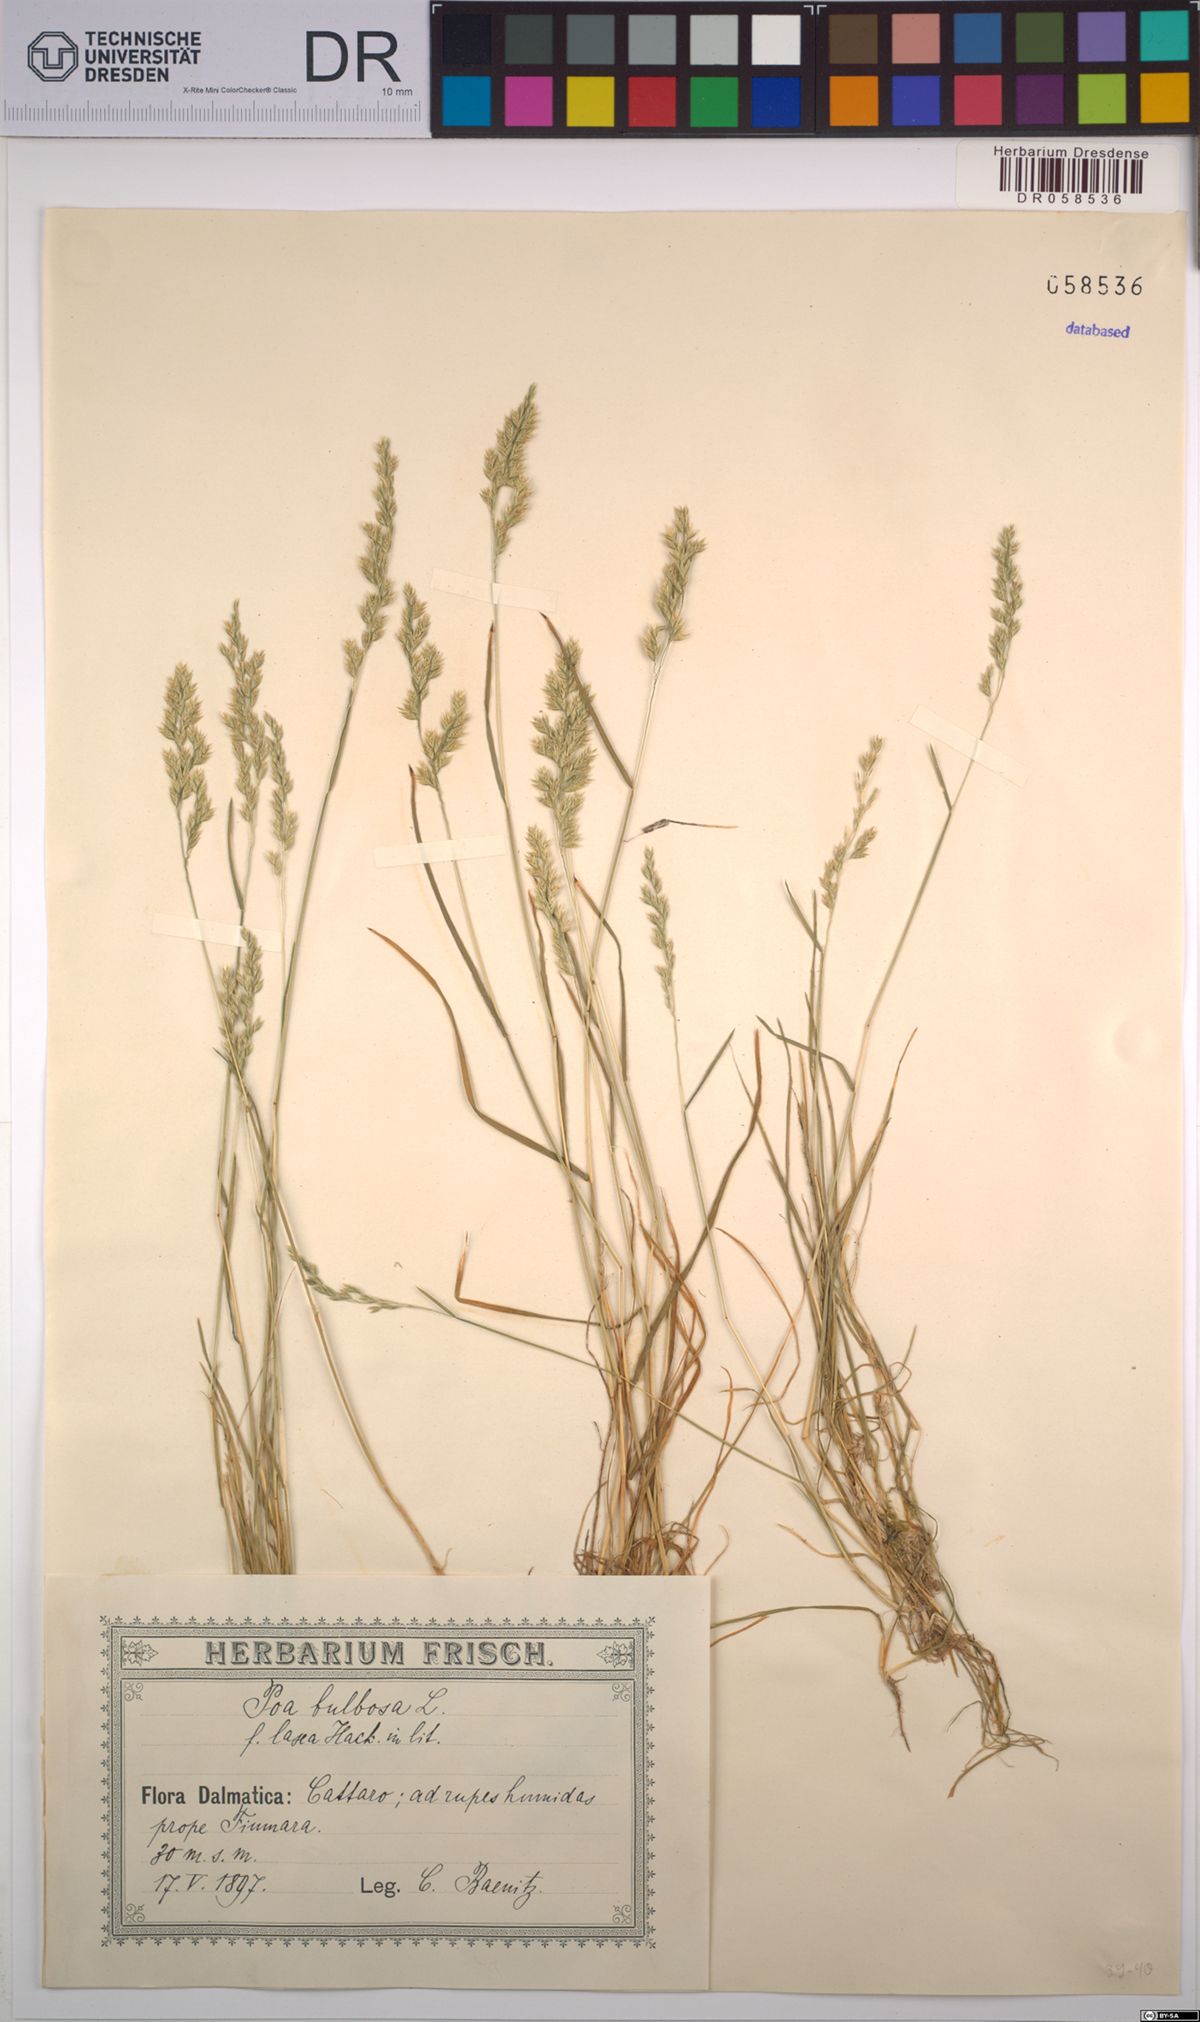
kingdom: Plantae
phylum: Tracheophyta
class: Liliopsida
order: Poales
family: Poaceae
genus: Poa
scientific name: Poa bulbosa
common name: Bulbous bluegrass
